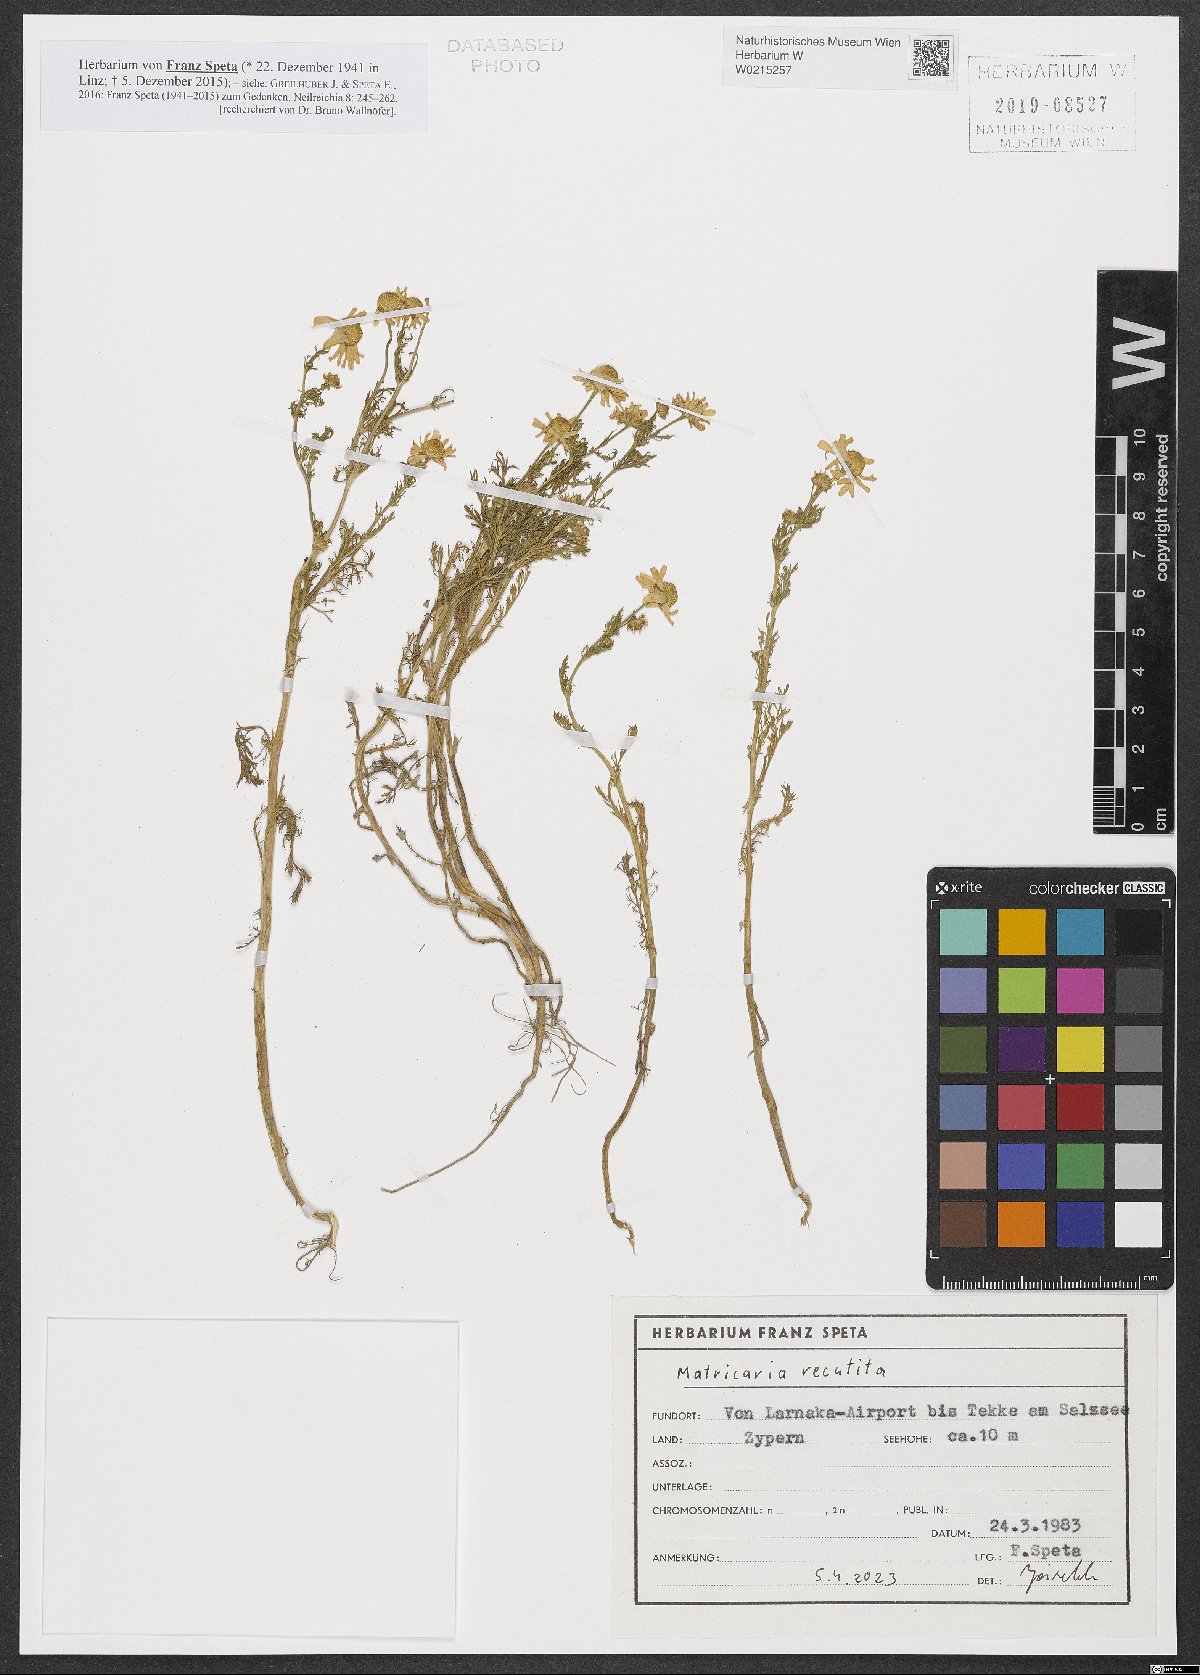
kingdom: Plantae
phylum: Tracheophyta
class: Magnoliopsida
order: Asterales
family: Asteraceae
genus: Matricaria
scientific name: Matricaria chamomilla
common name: Scented mayweed
